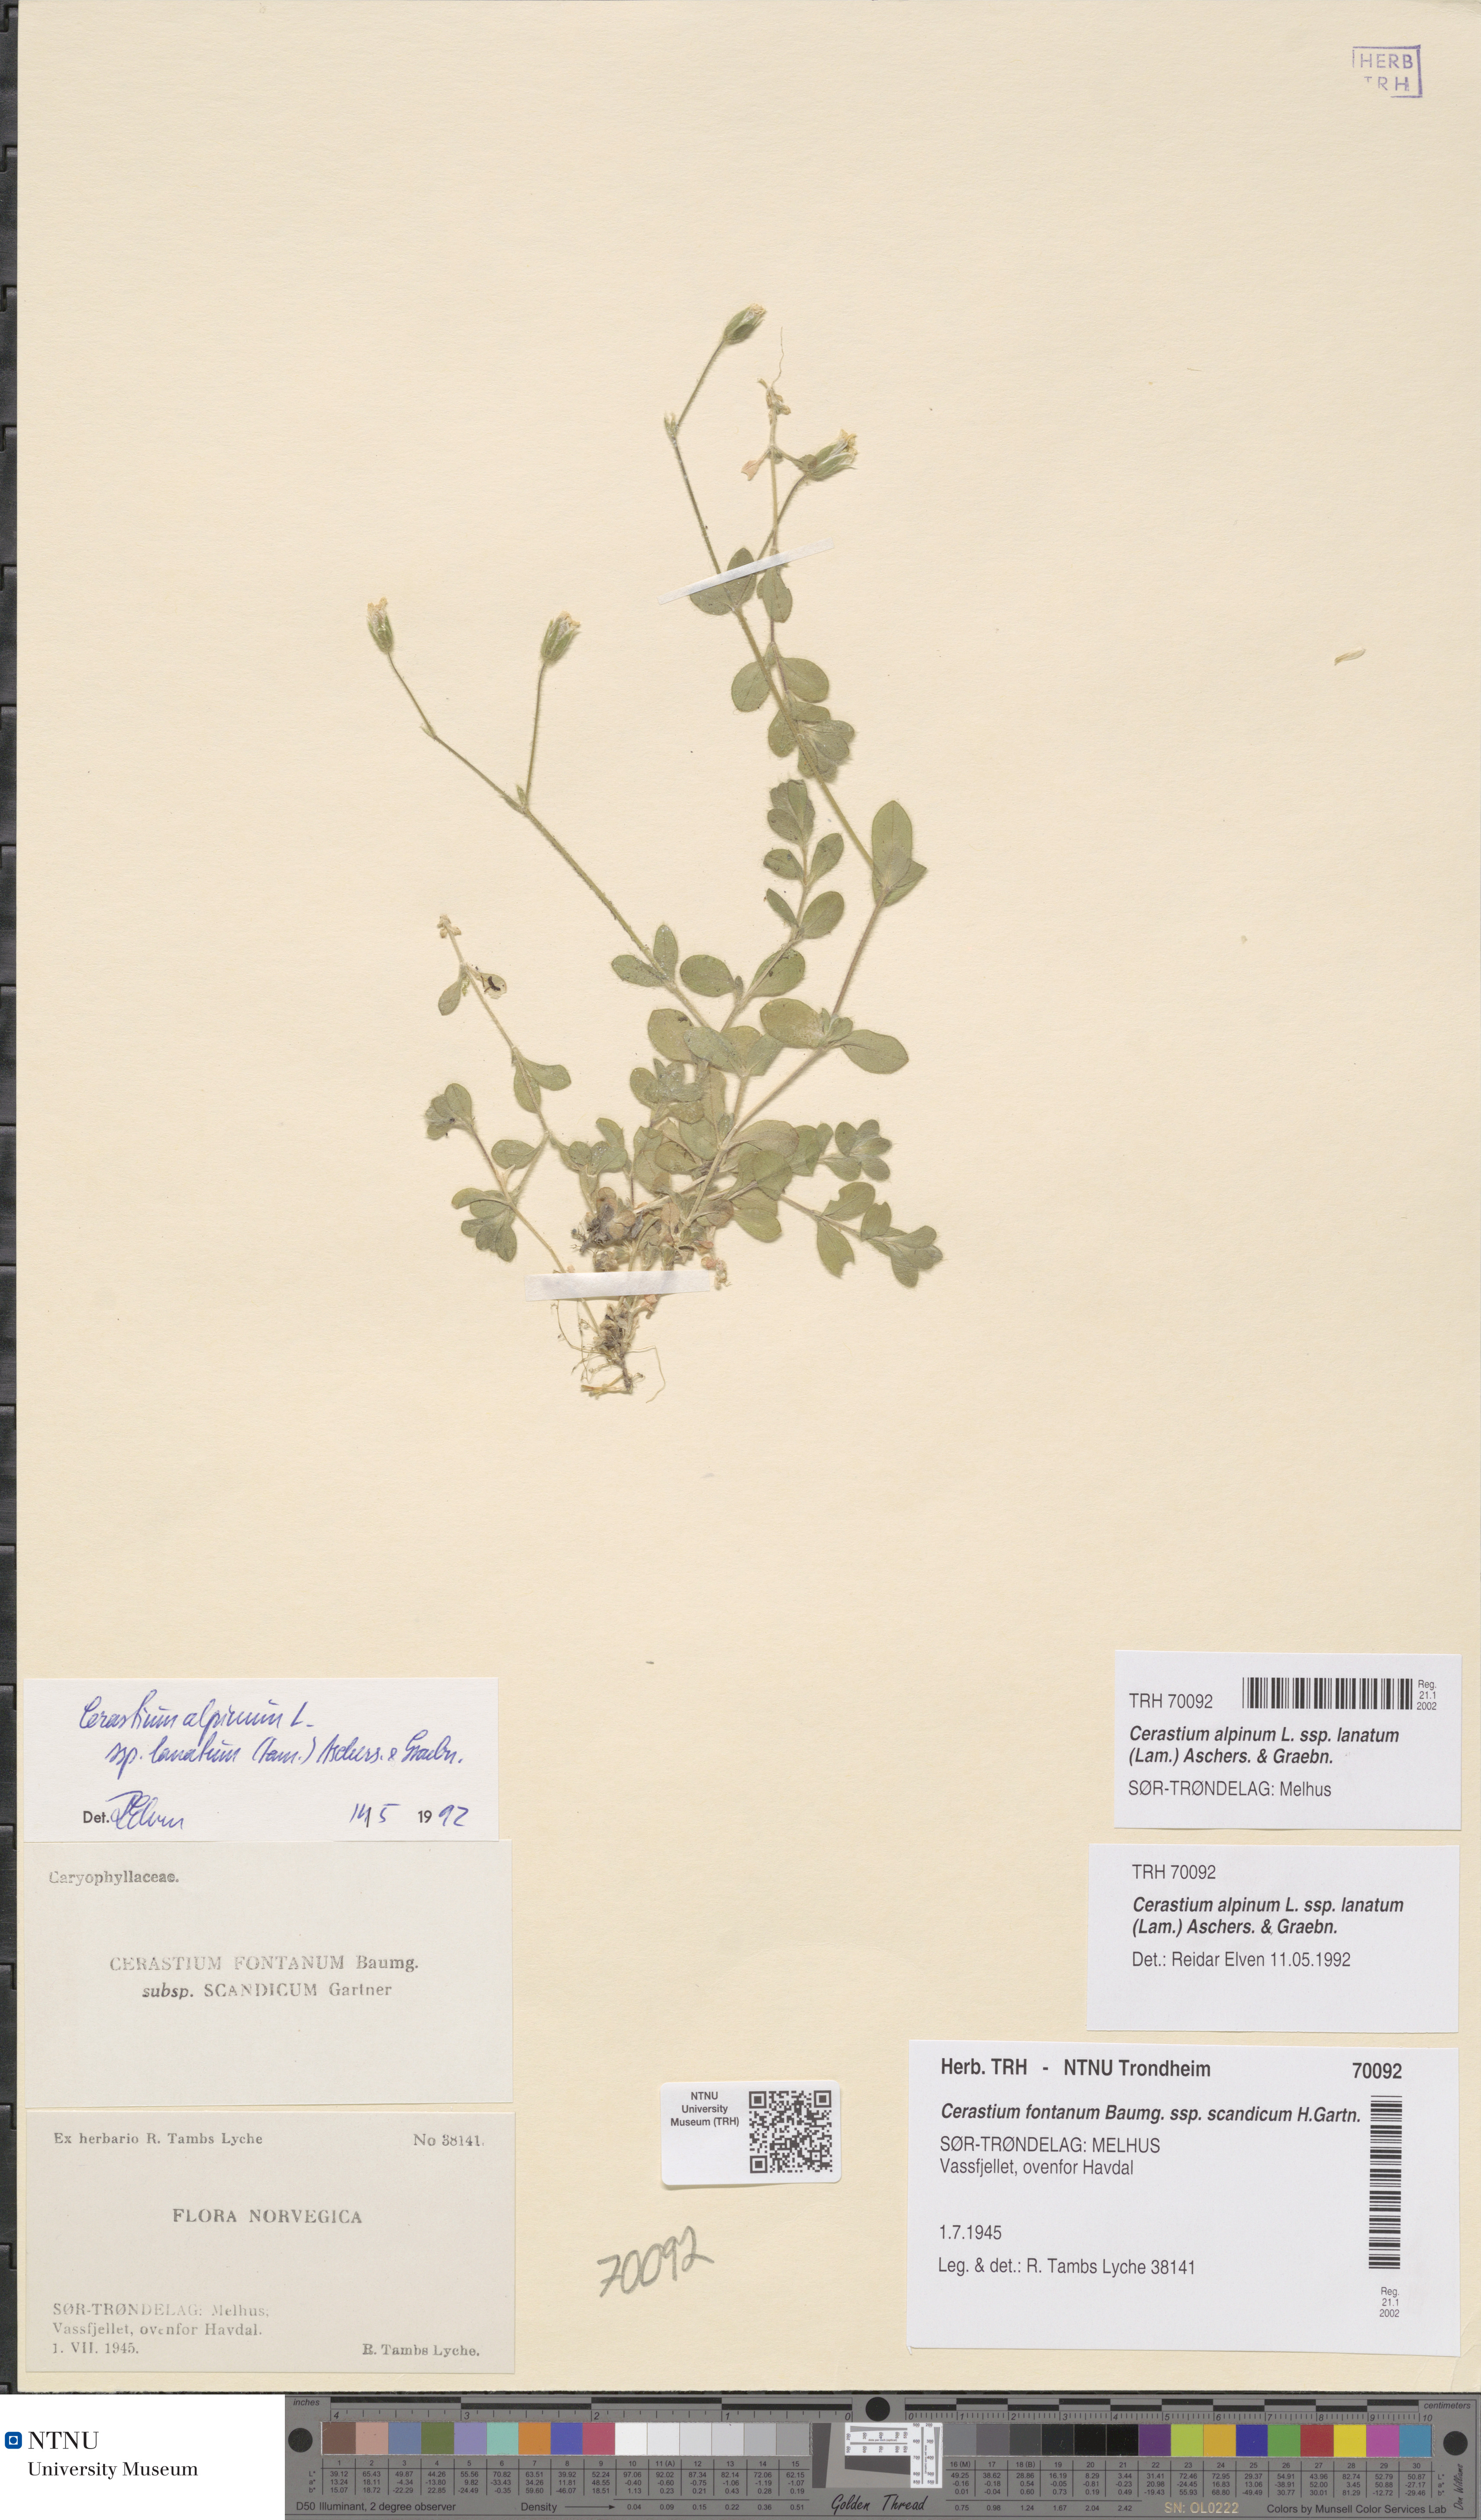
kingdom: Plantae
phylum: Tracheophyta
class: Magnoliopsida
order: Caryophyllales
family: Caryophyllaceae
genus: Cerastium
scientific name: Cerastium alpinum
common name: Alpine mouse-ear
